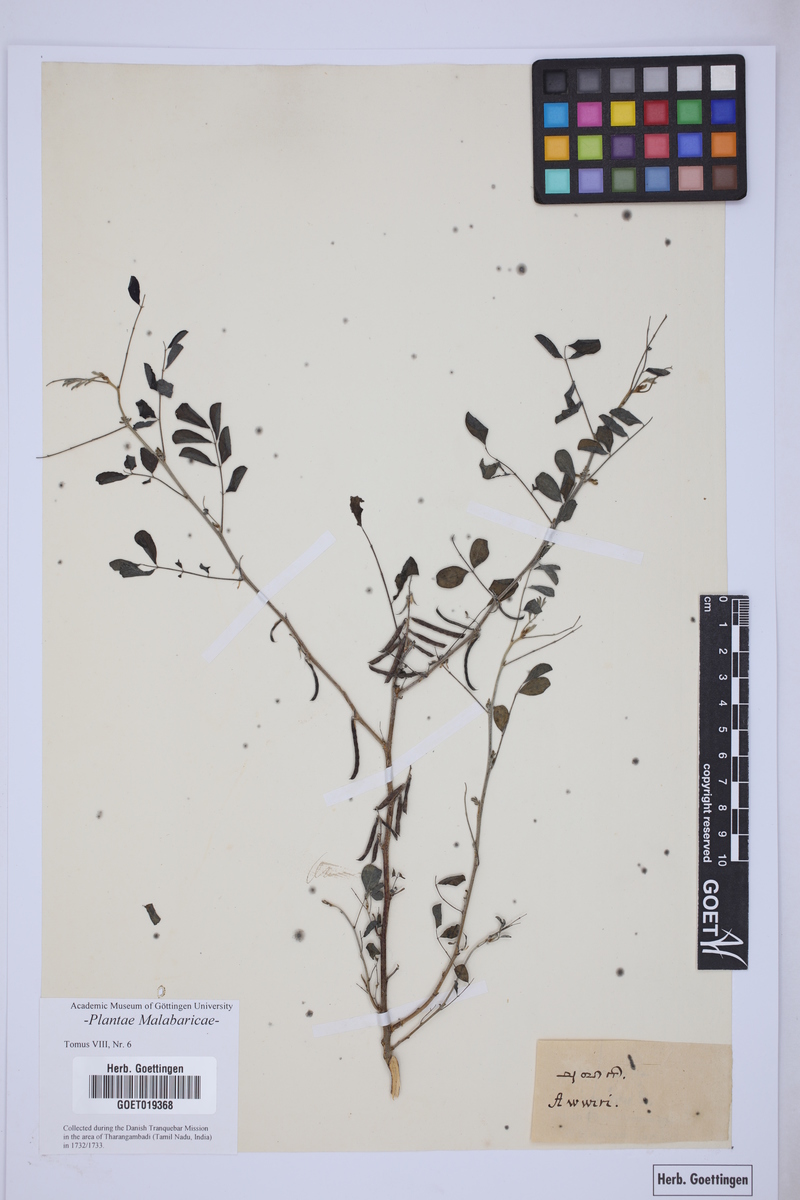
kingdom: Plantae
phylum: Tracheophyta
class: Magnoliopsida
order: Fabales
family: Fabaceae
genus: Indigofera
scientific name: Indigofera suffruticosa
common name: Anil de pasto
